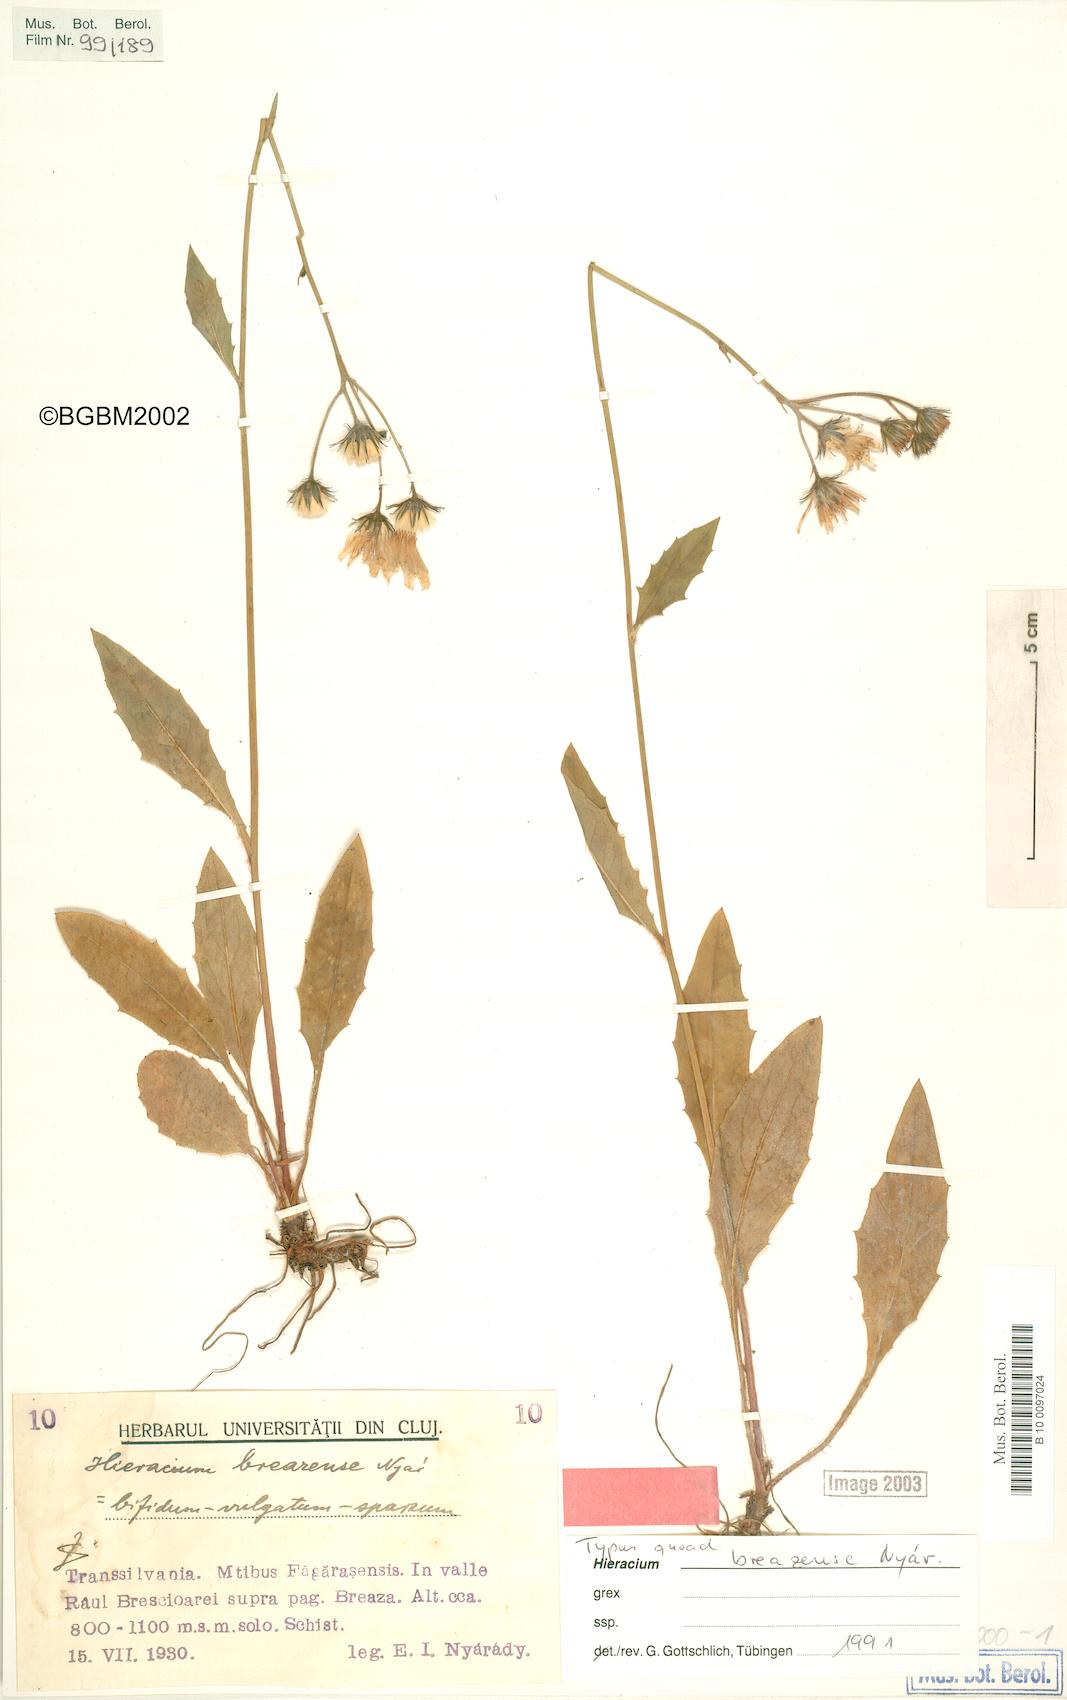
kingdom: Plantae
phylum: Tracheophyta
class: Magnoliopsida
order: Asterales
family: Asteraceae
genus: Hieracium
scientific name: Hieracium breazense
